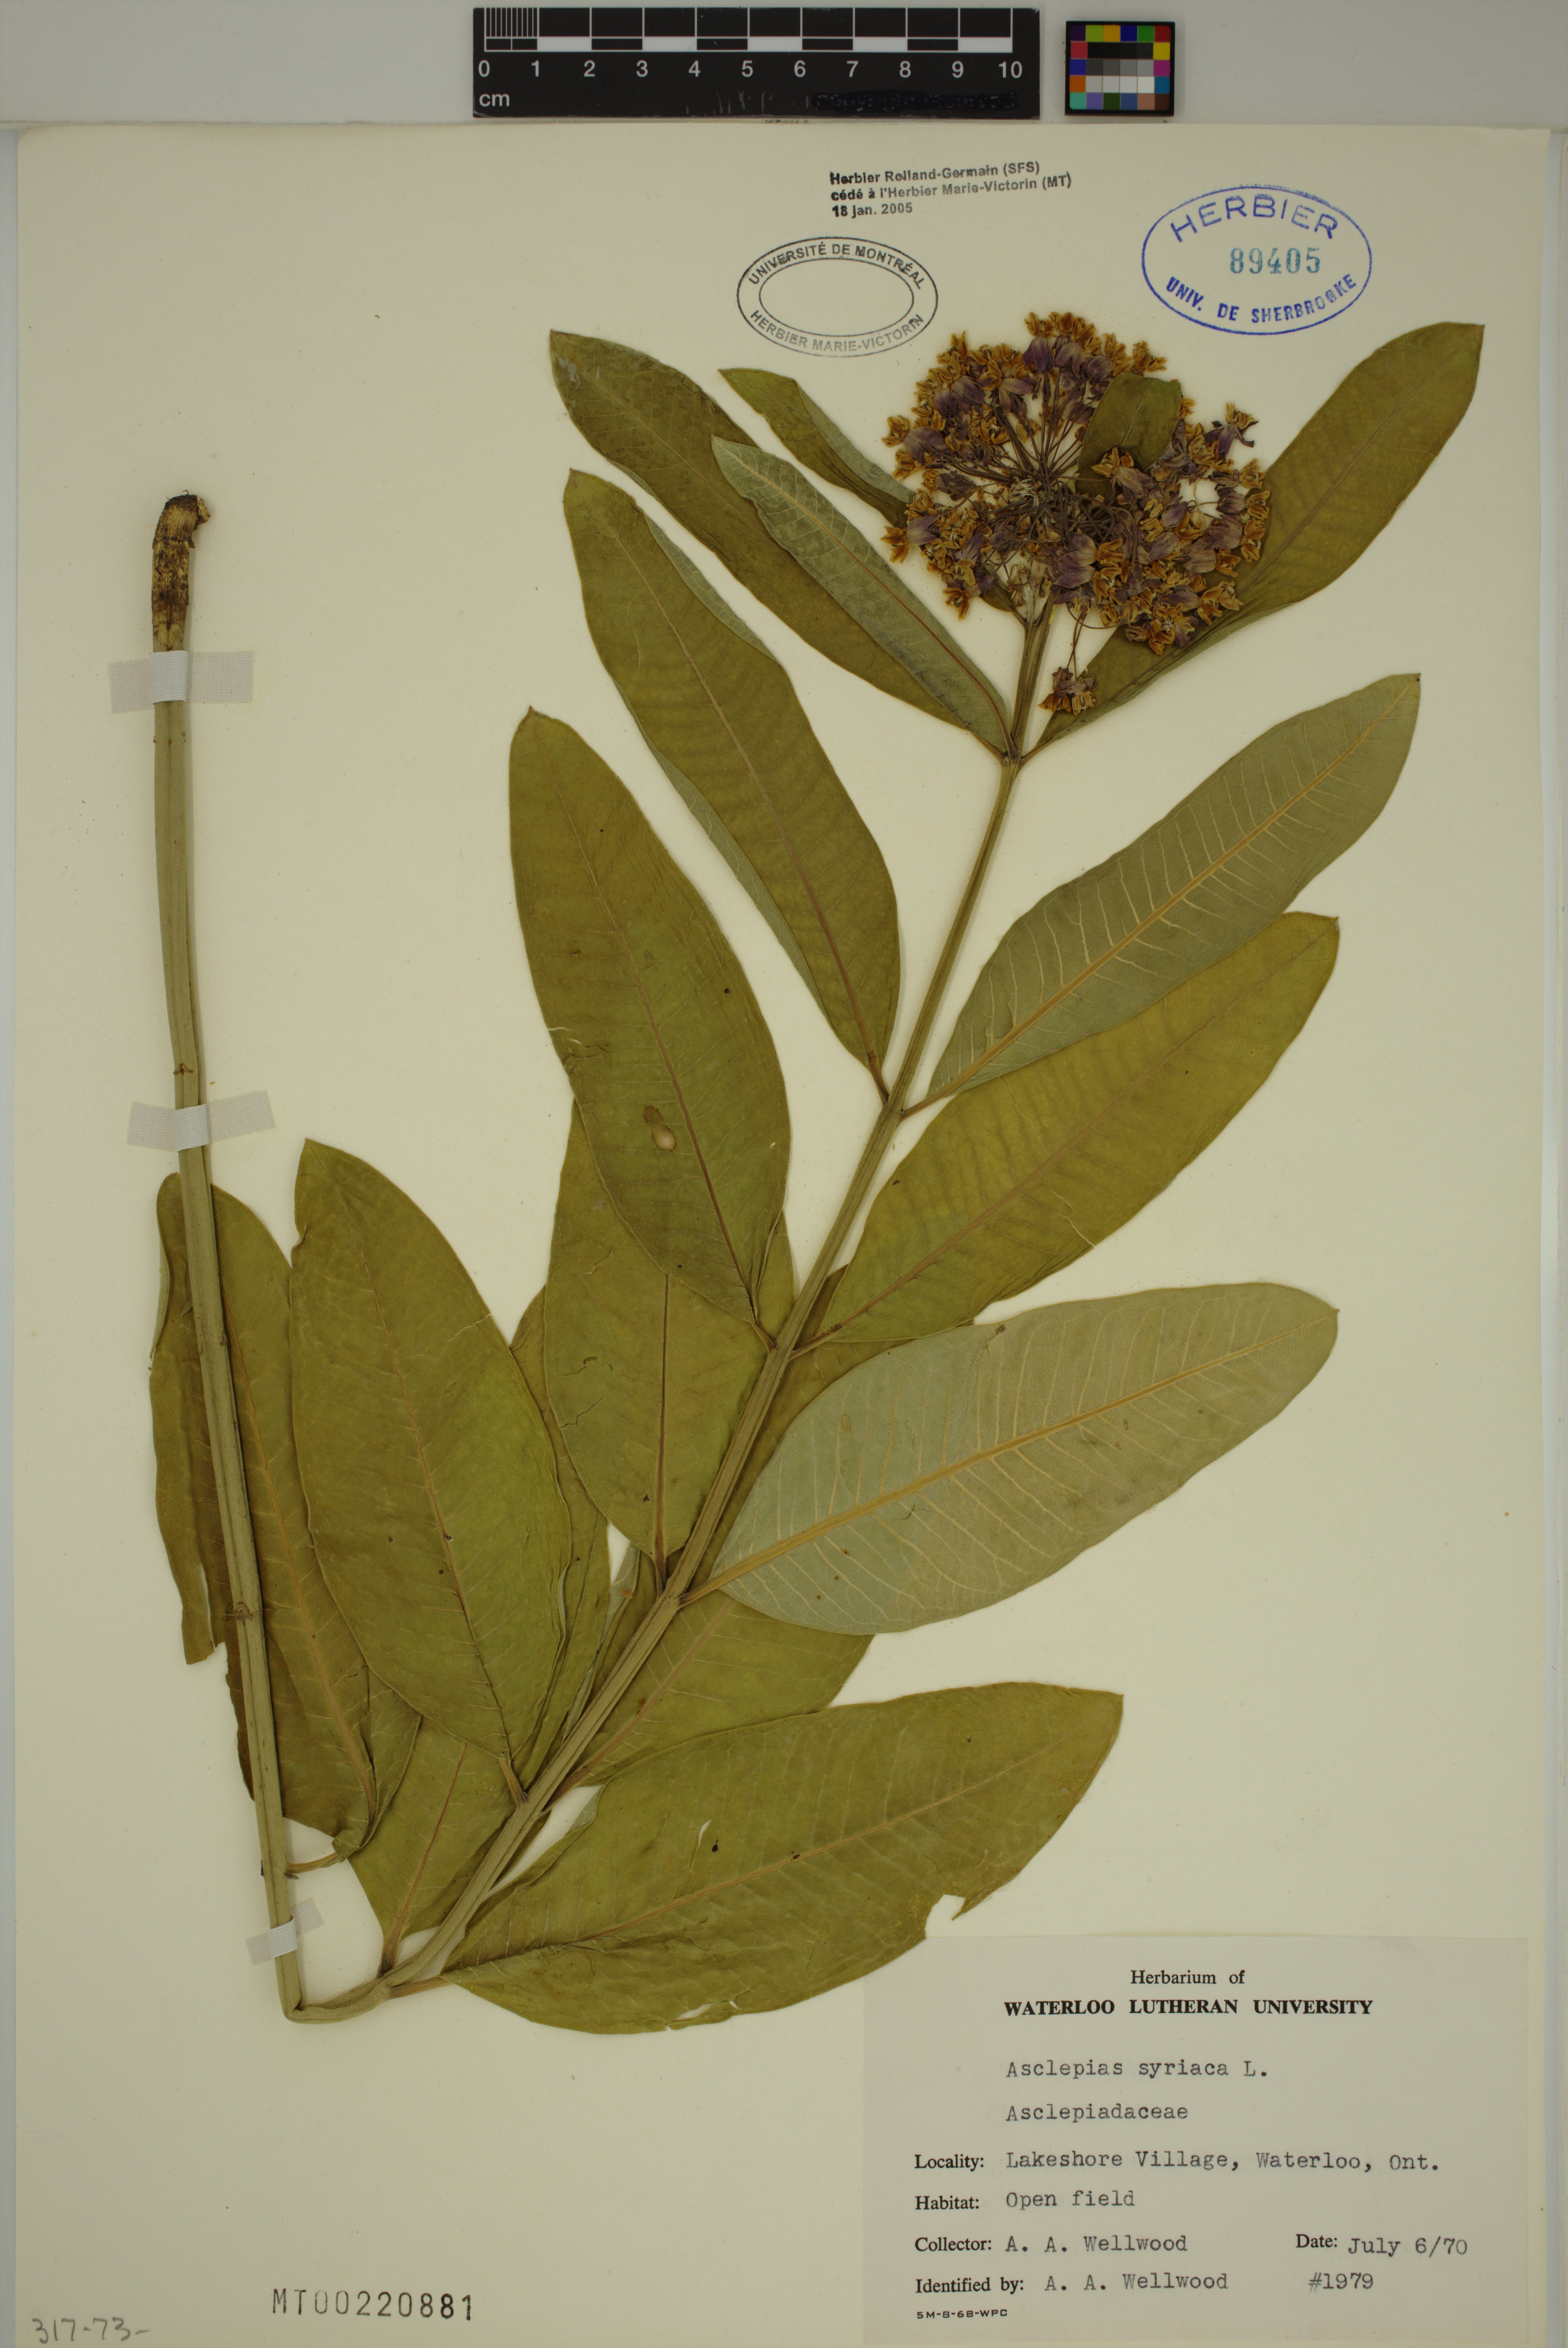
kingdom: Plantae
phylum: Tracheophyta
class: Magnoliopsida
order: Gentianales
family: Apocynaceae
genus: Asclepias
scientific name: Asclepias syriaca
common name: Common milkweed
